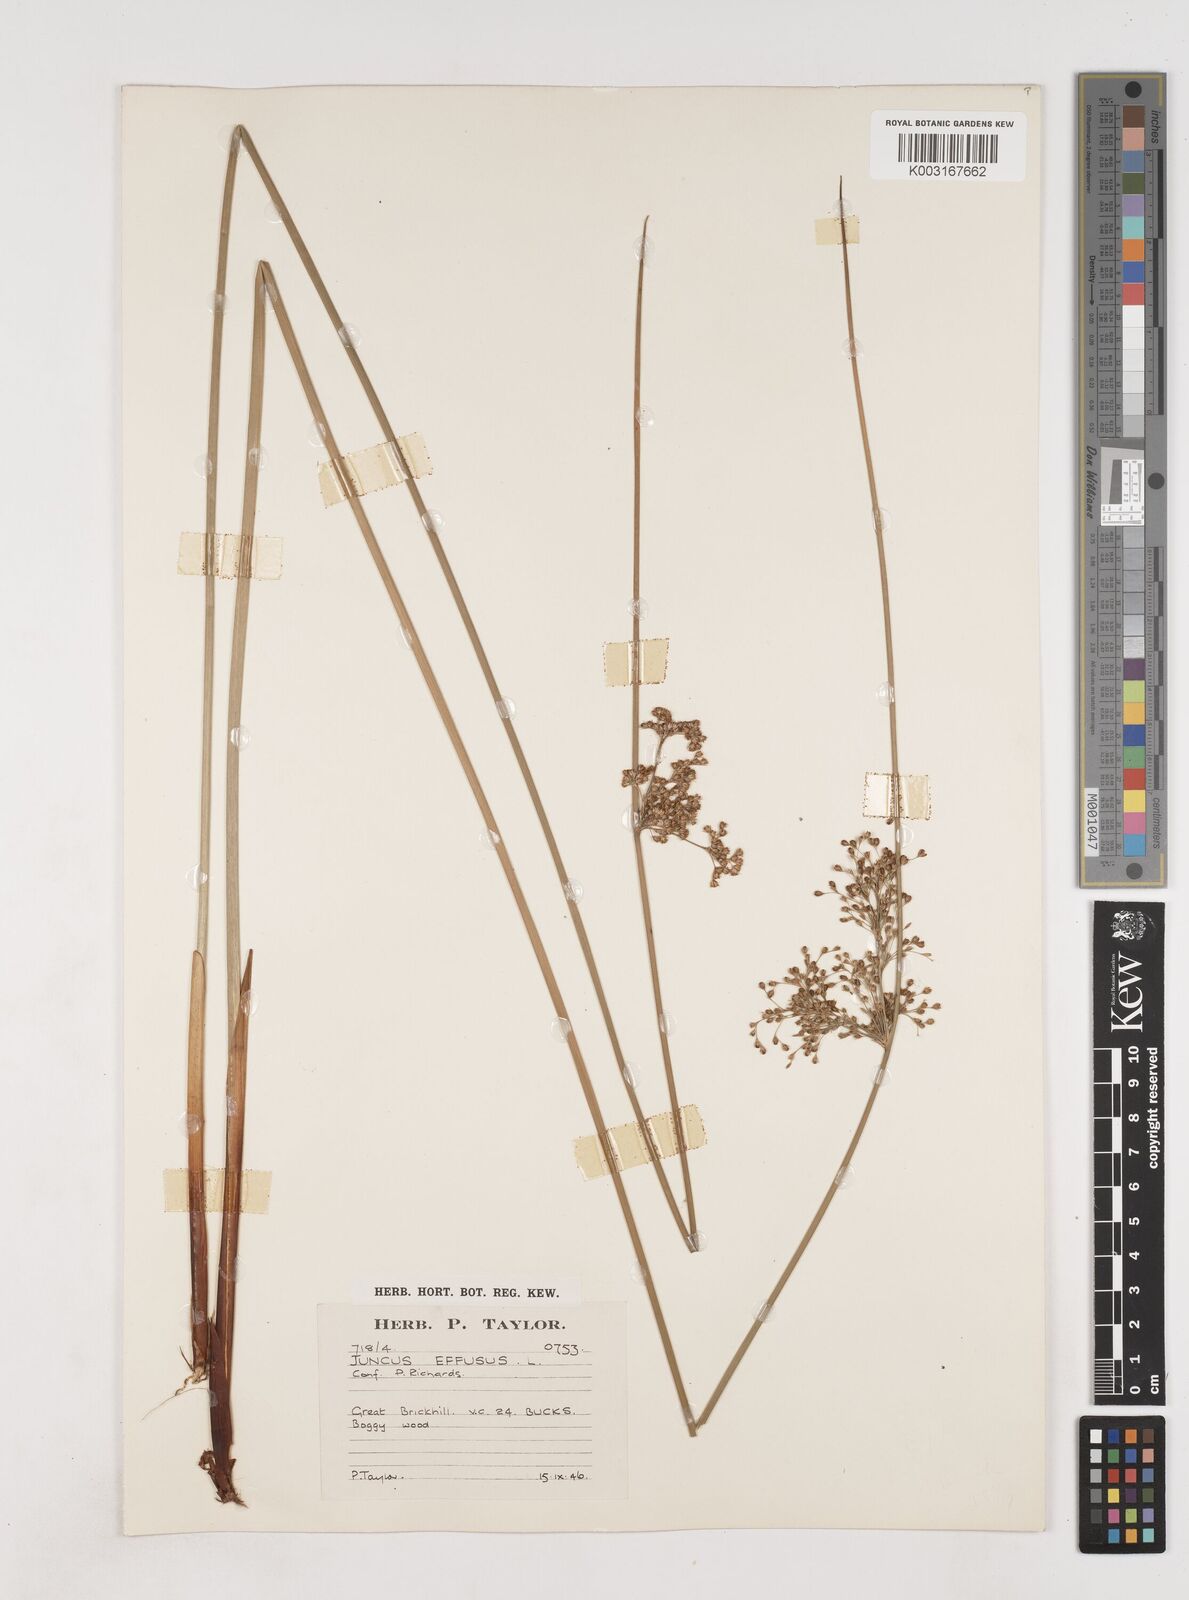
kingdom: Plantae
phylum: Tracheophyta
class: Liliopsida
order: Poales
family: Juncaceae
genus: Juncus
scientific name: Juncus effusus
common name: Soft rush
